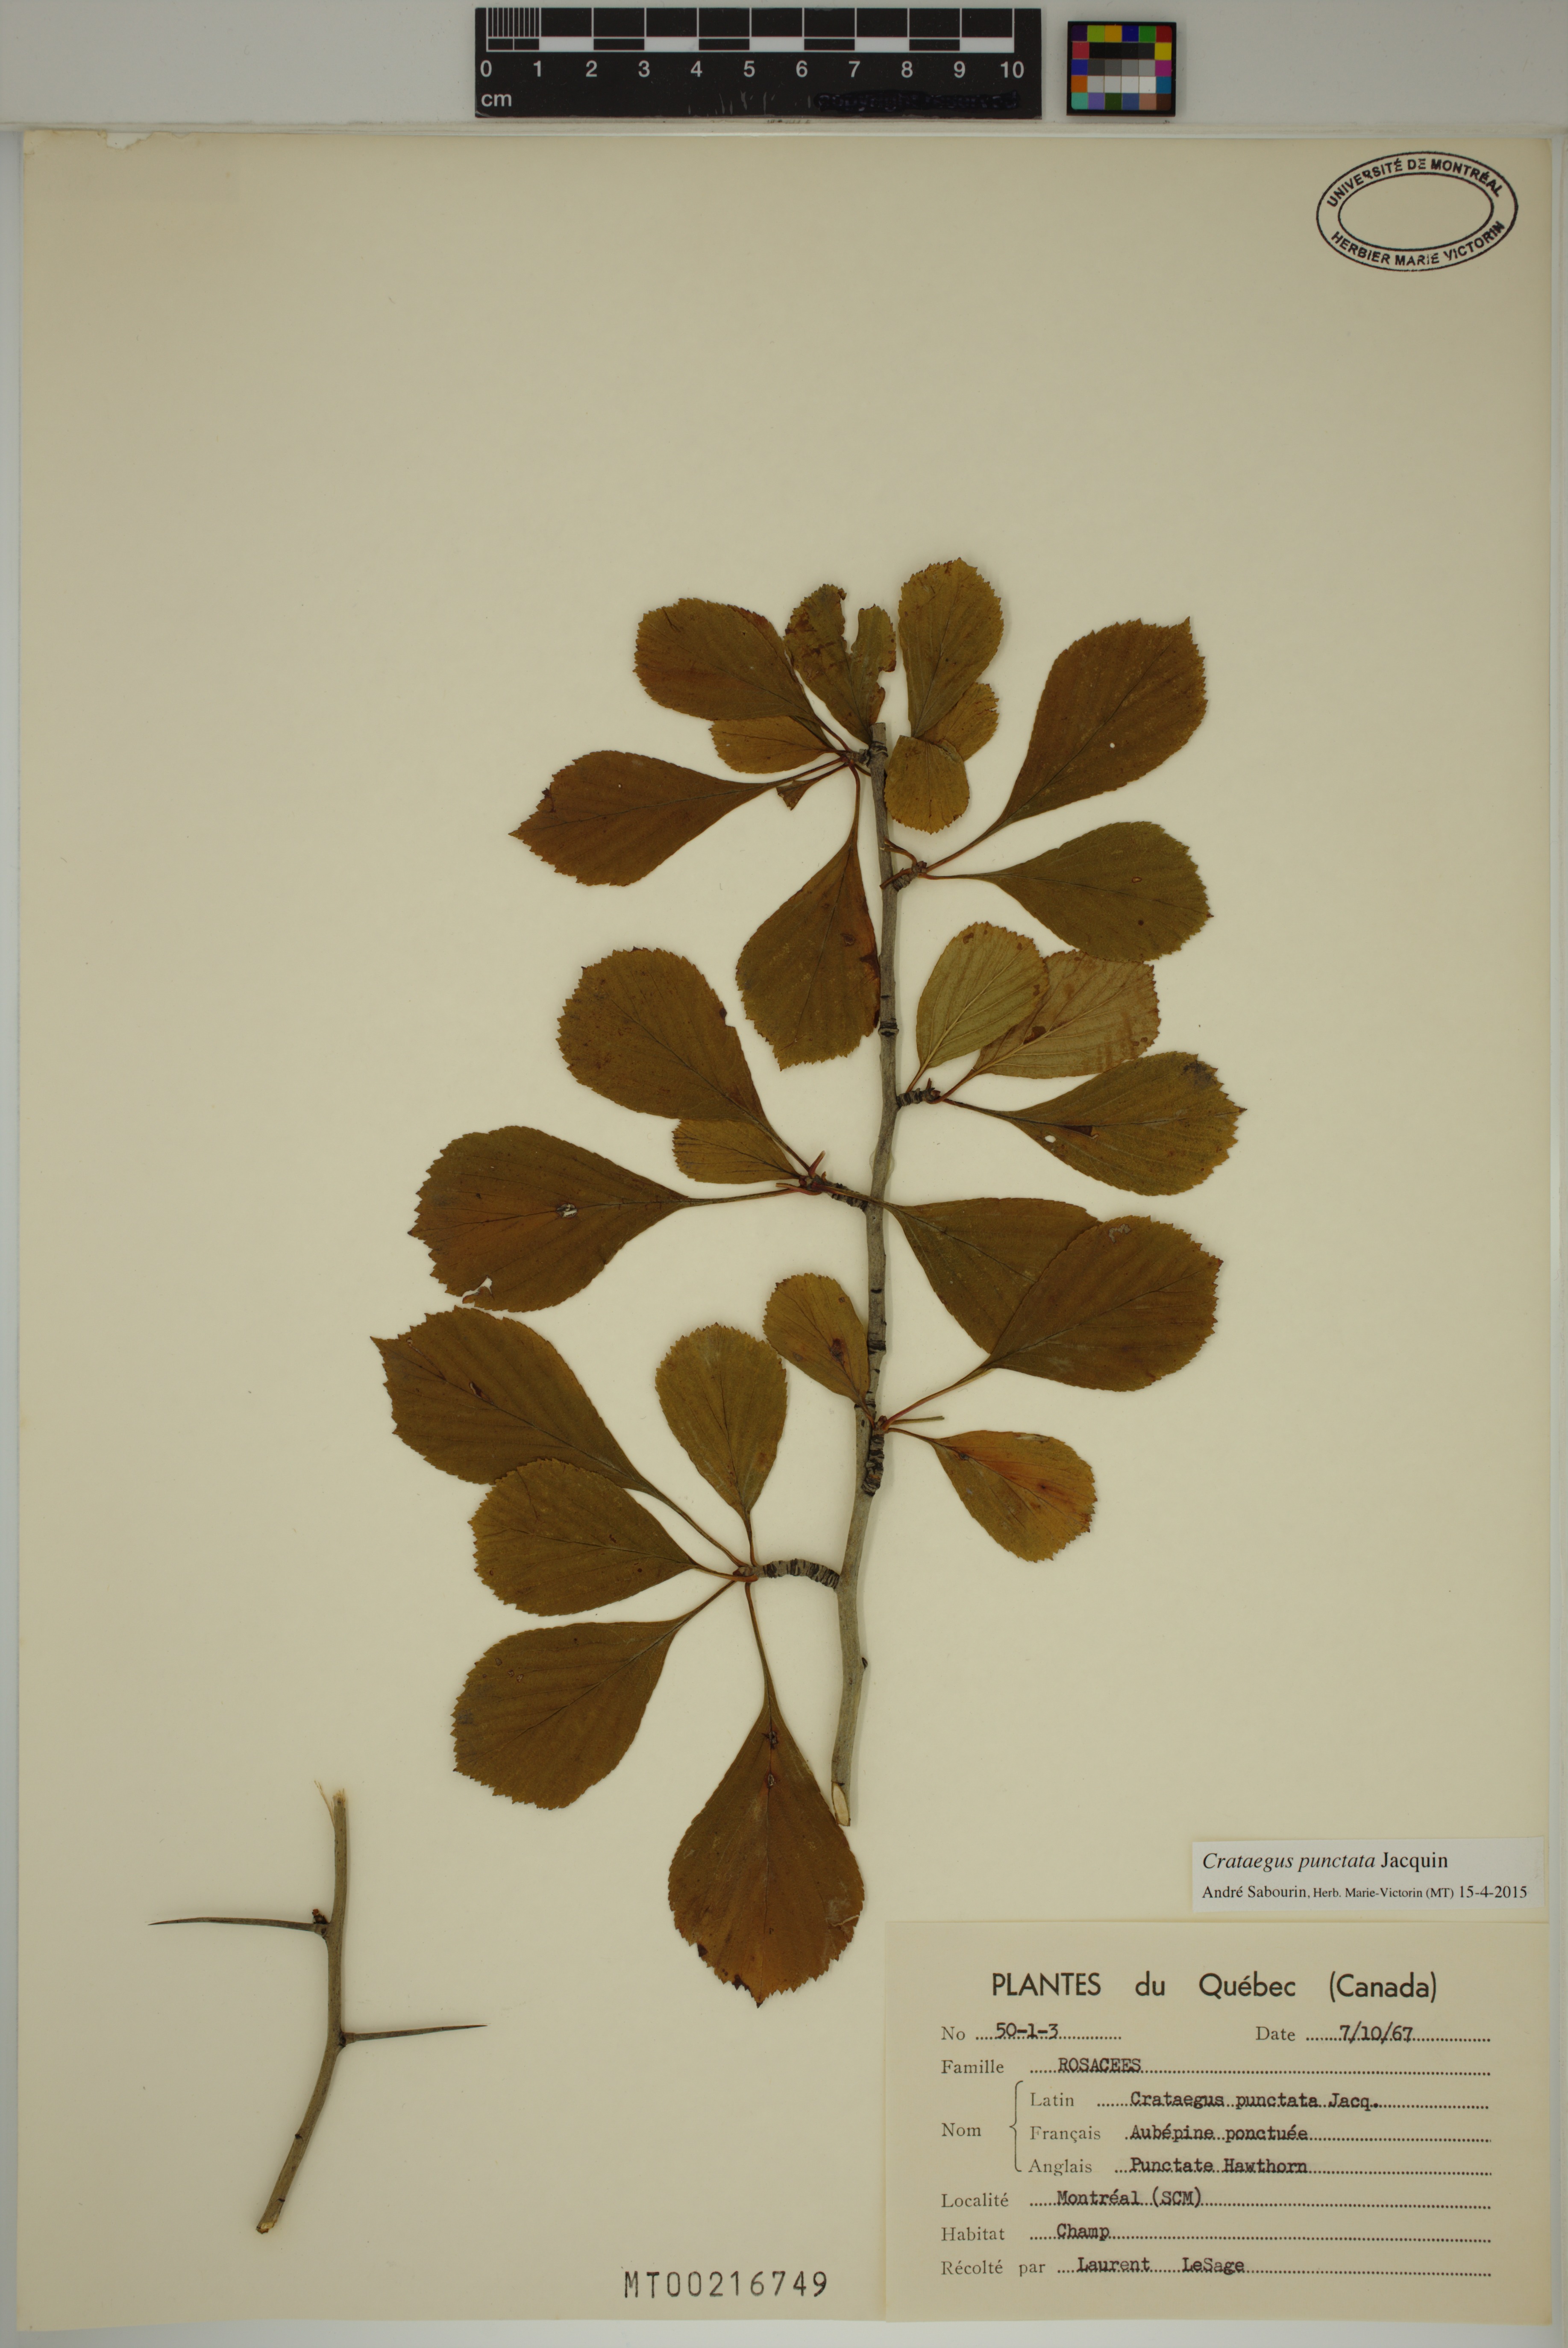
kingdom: Plantae
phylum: Tracheophyta
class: Magnoliopsida
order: Rosales
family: Rosaceae
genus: Crataegus
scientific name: Crataegus punctata
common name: Dotted hawthorn
